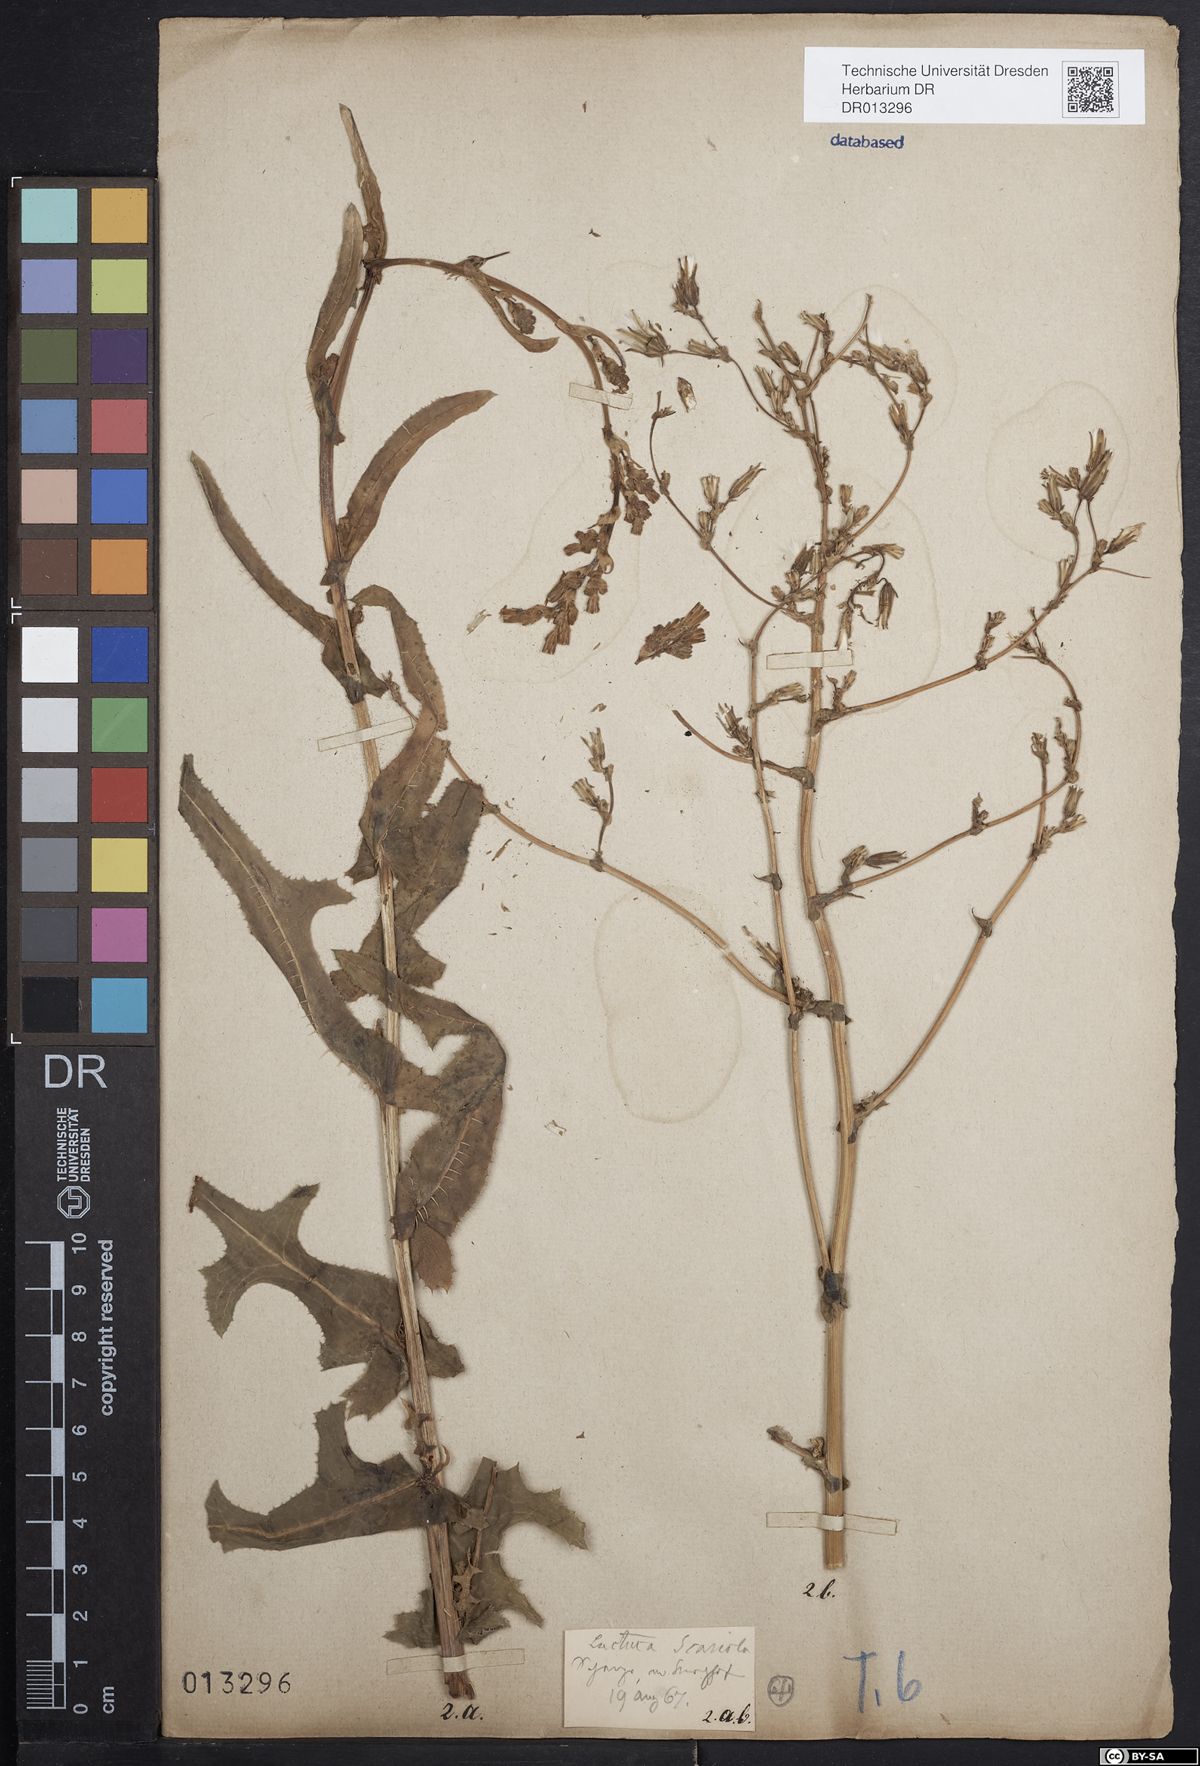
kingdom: Plantae
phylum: Tracheophyta
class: Magnoliopsida
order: Asterales
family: Asteraceae
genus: Lactuca
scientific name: Lactuca serriola
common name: Prickly lettuce
